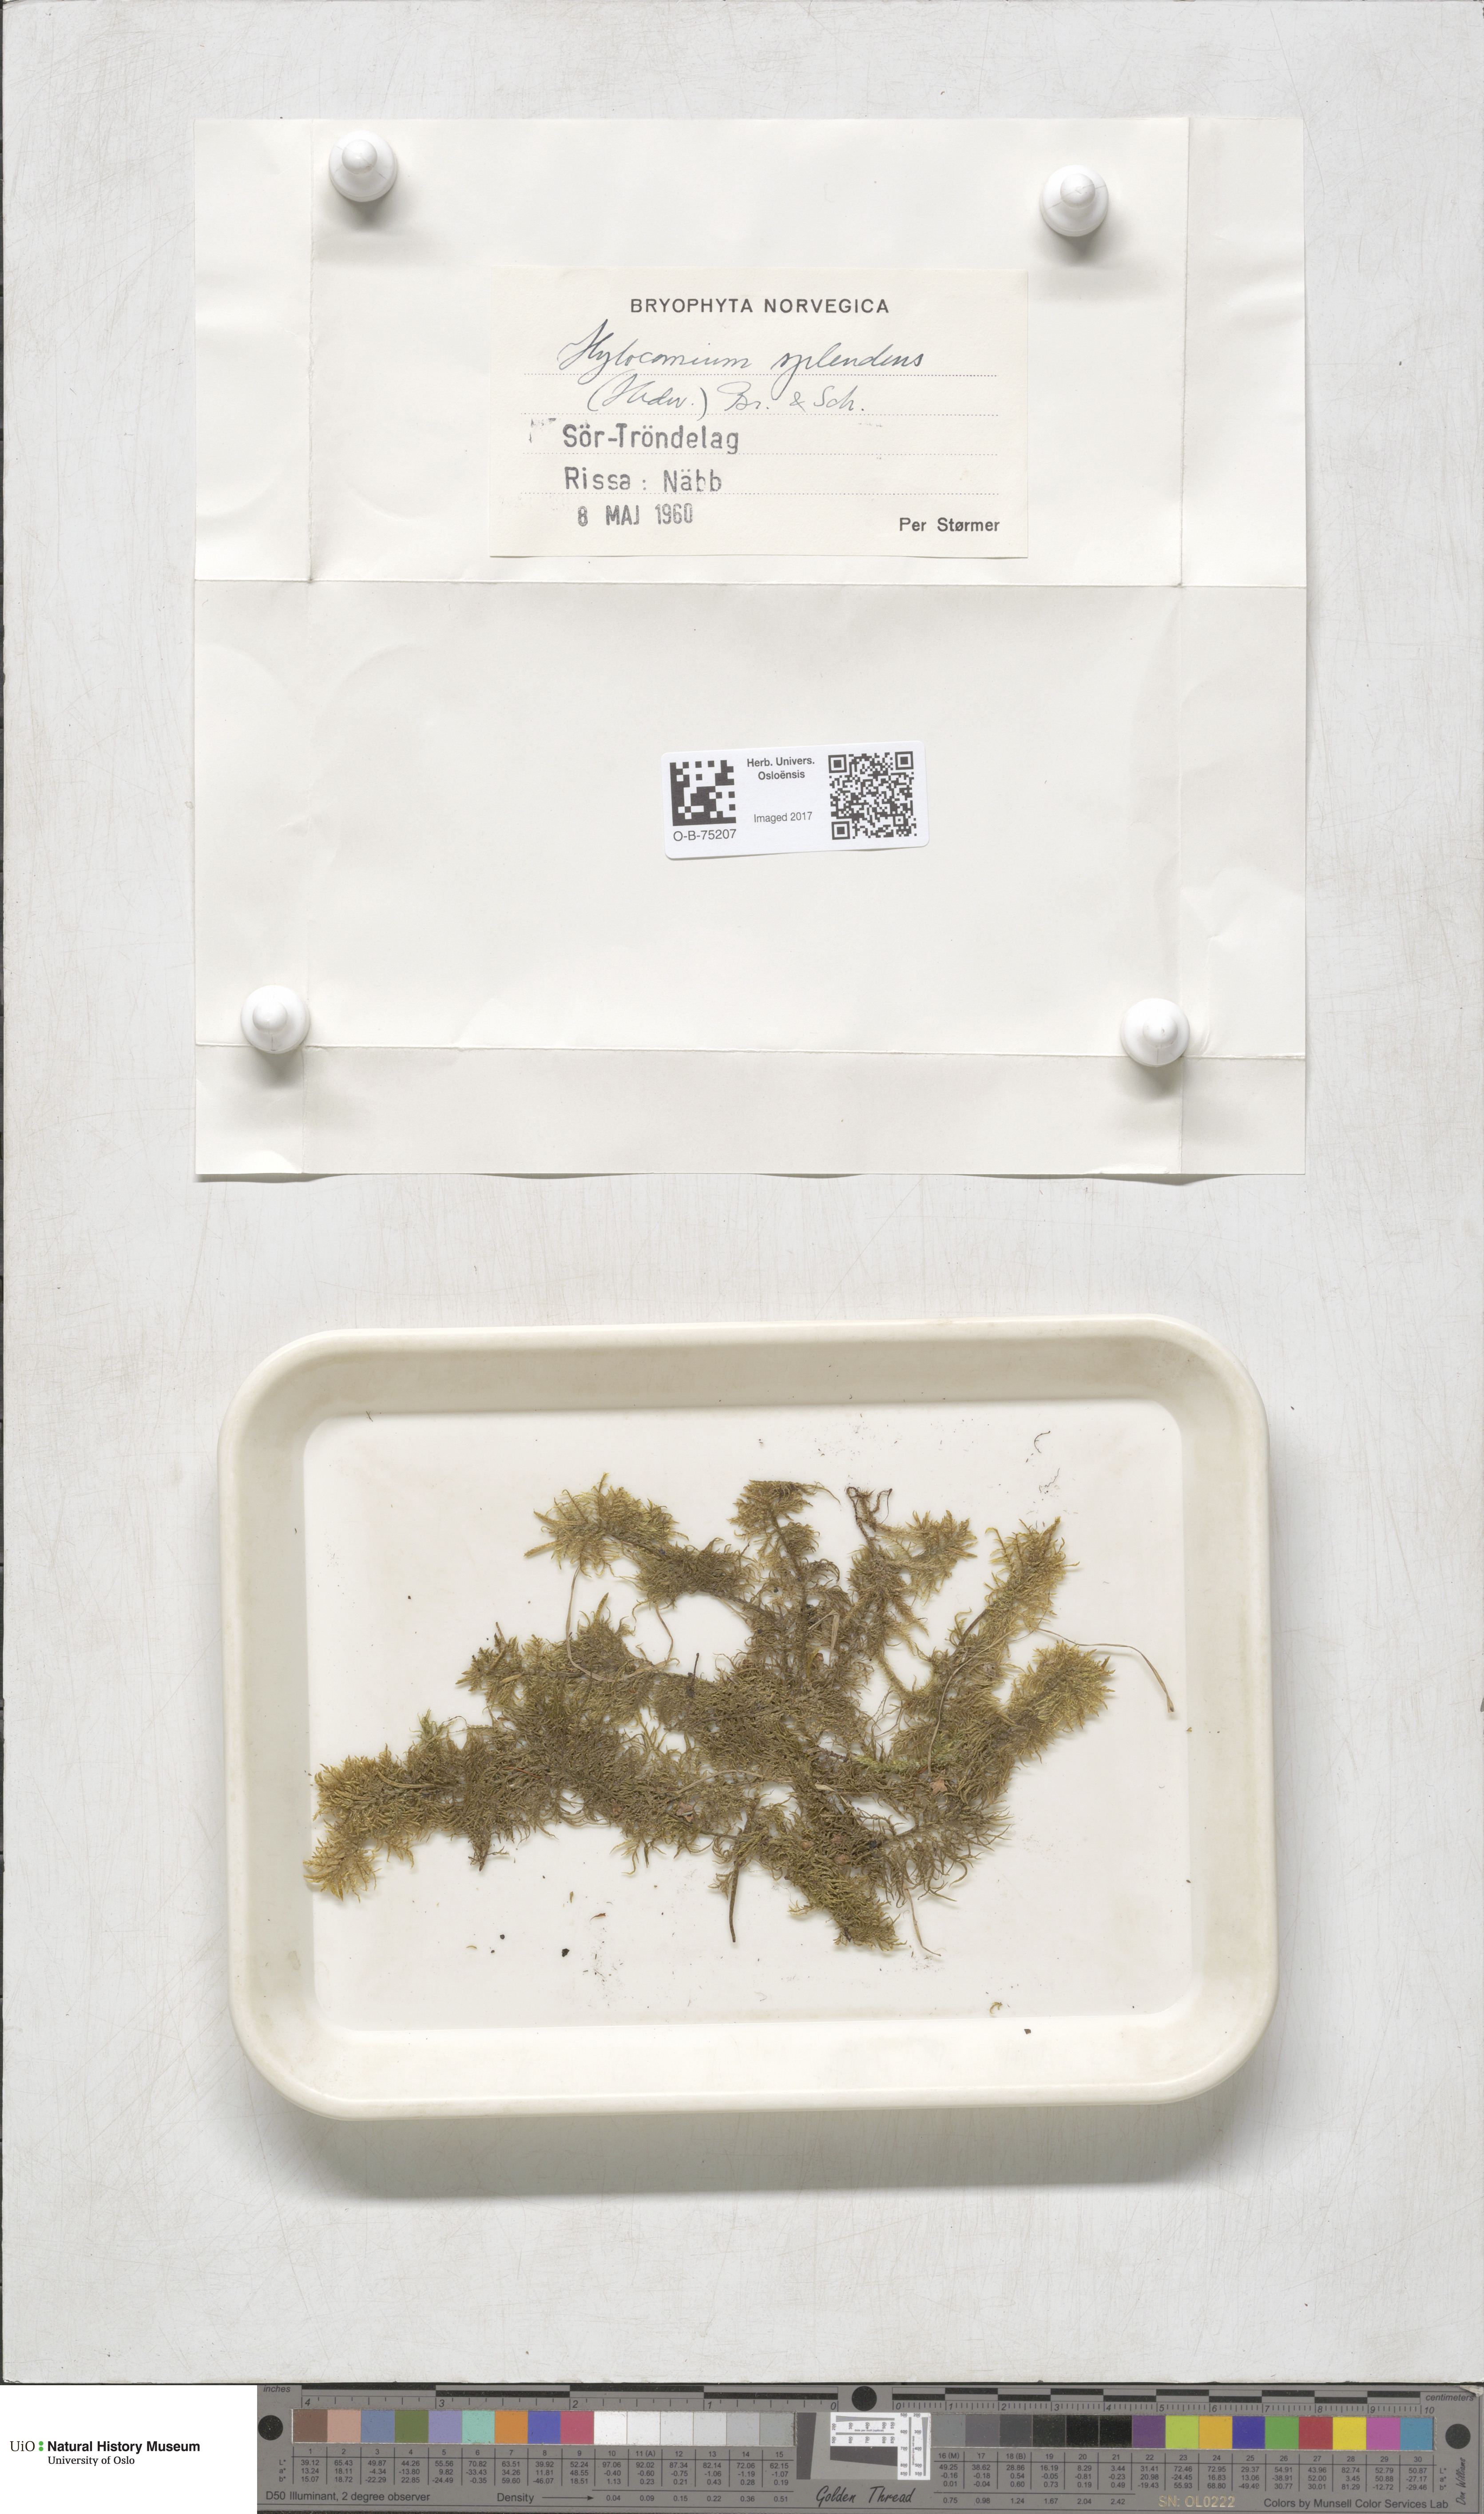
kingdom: Plantae
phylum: Bryophyta
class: Bryopsida
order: Hypnales
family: Hylocomiaceae
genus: Hylocomium
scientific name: Hylocomium splendens
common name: Stairstep moss
